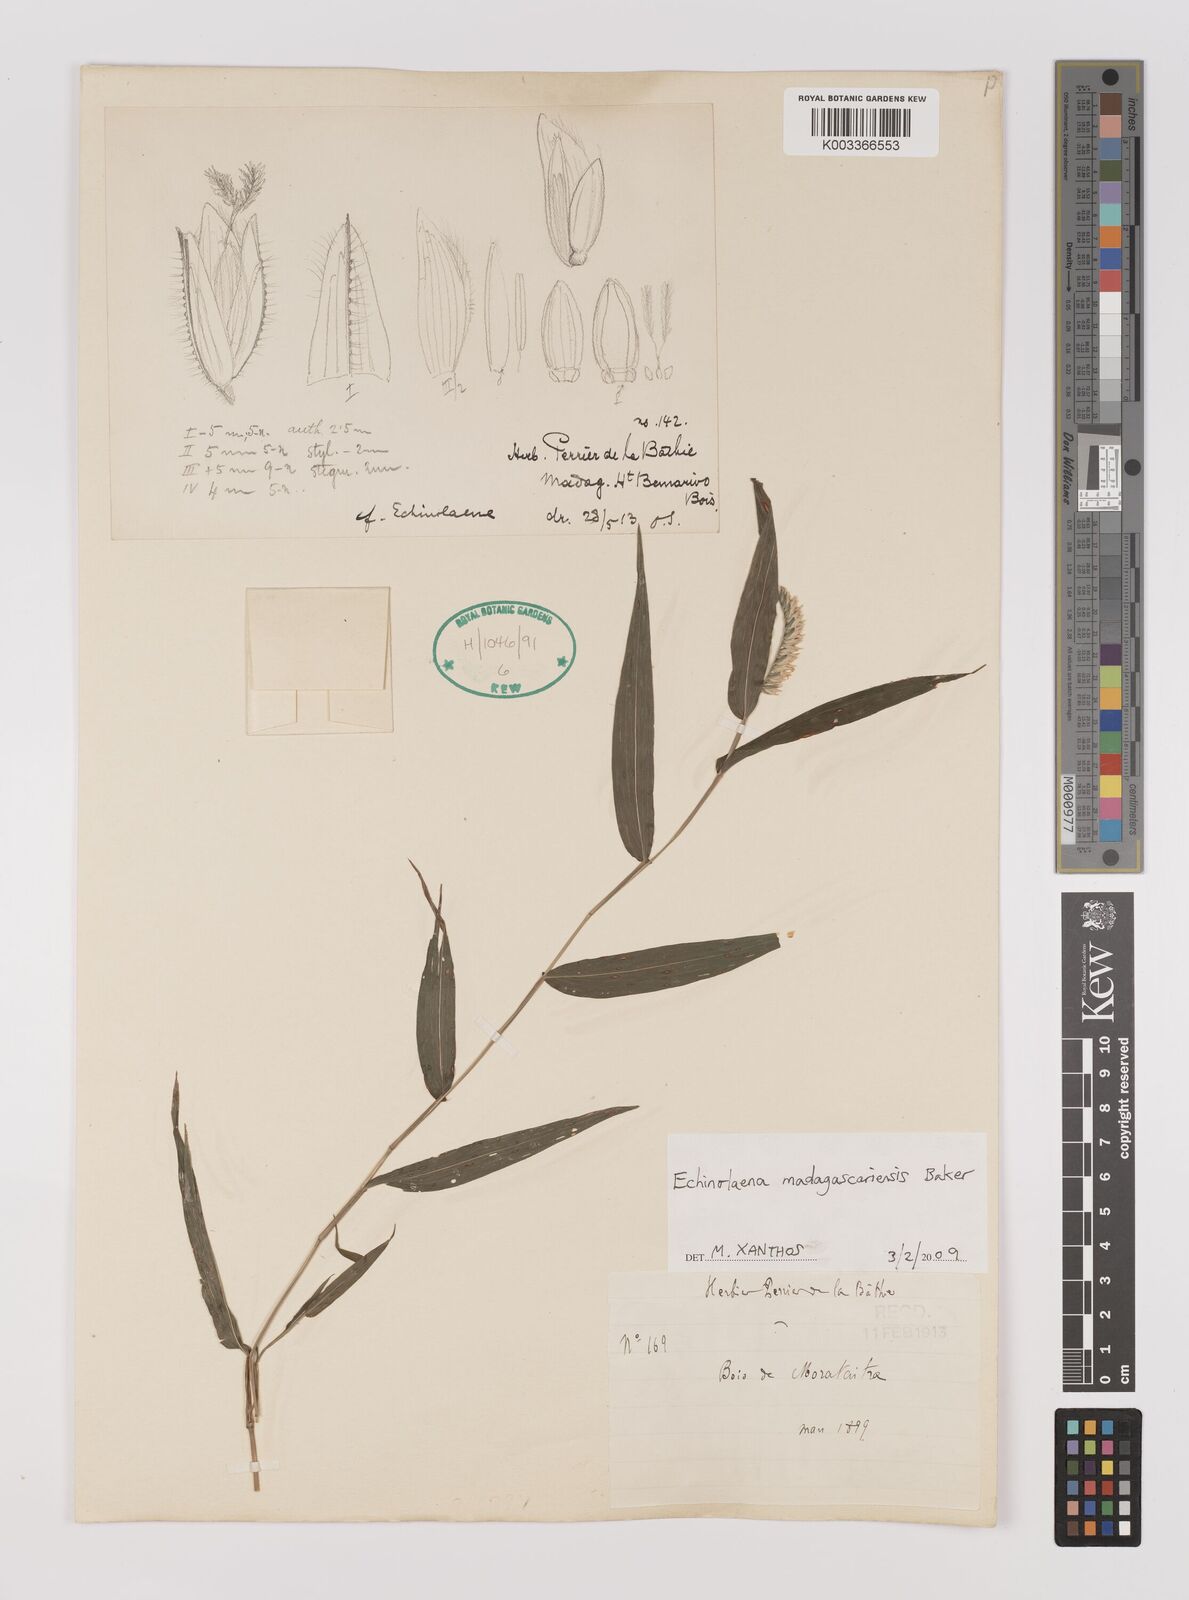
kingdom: Plantae
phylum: Tracheophyta
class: Liliopsida
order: Poales
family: Poaceae
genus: Chasechloa
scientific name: Chasechloa madagascariensis
